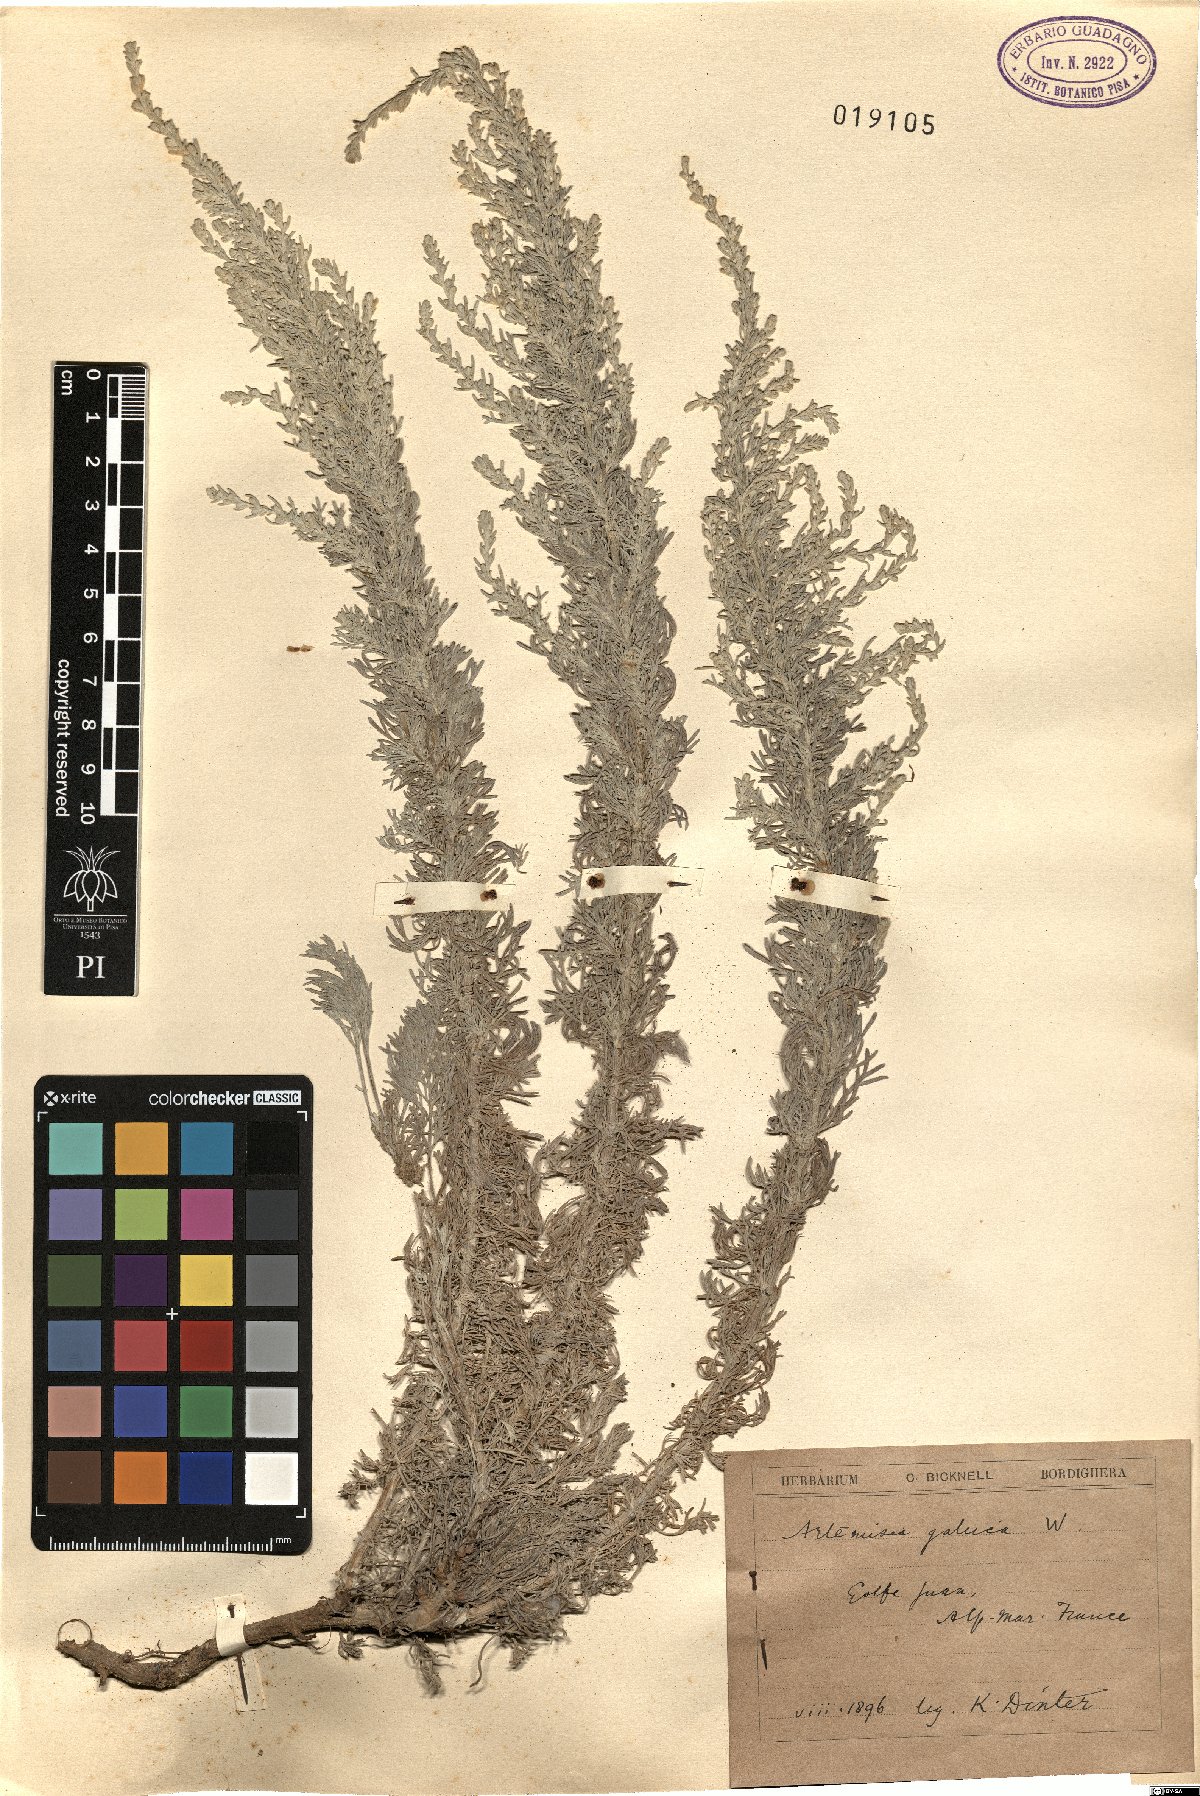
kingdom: Plantae
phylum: Tracheophyta
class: Magnoliopsida
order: Asterales
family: Asteraceae
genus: Artemisia
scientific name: Artemisia caerulescens
